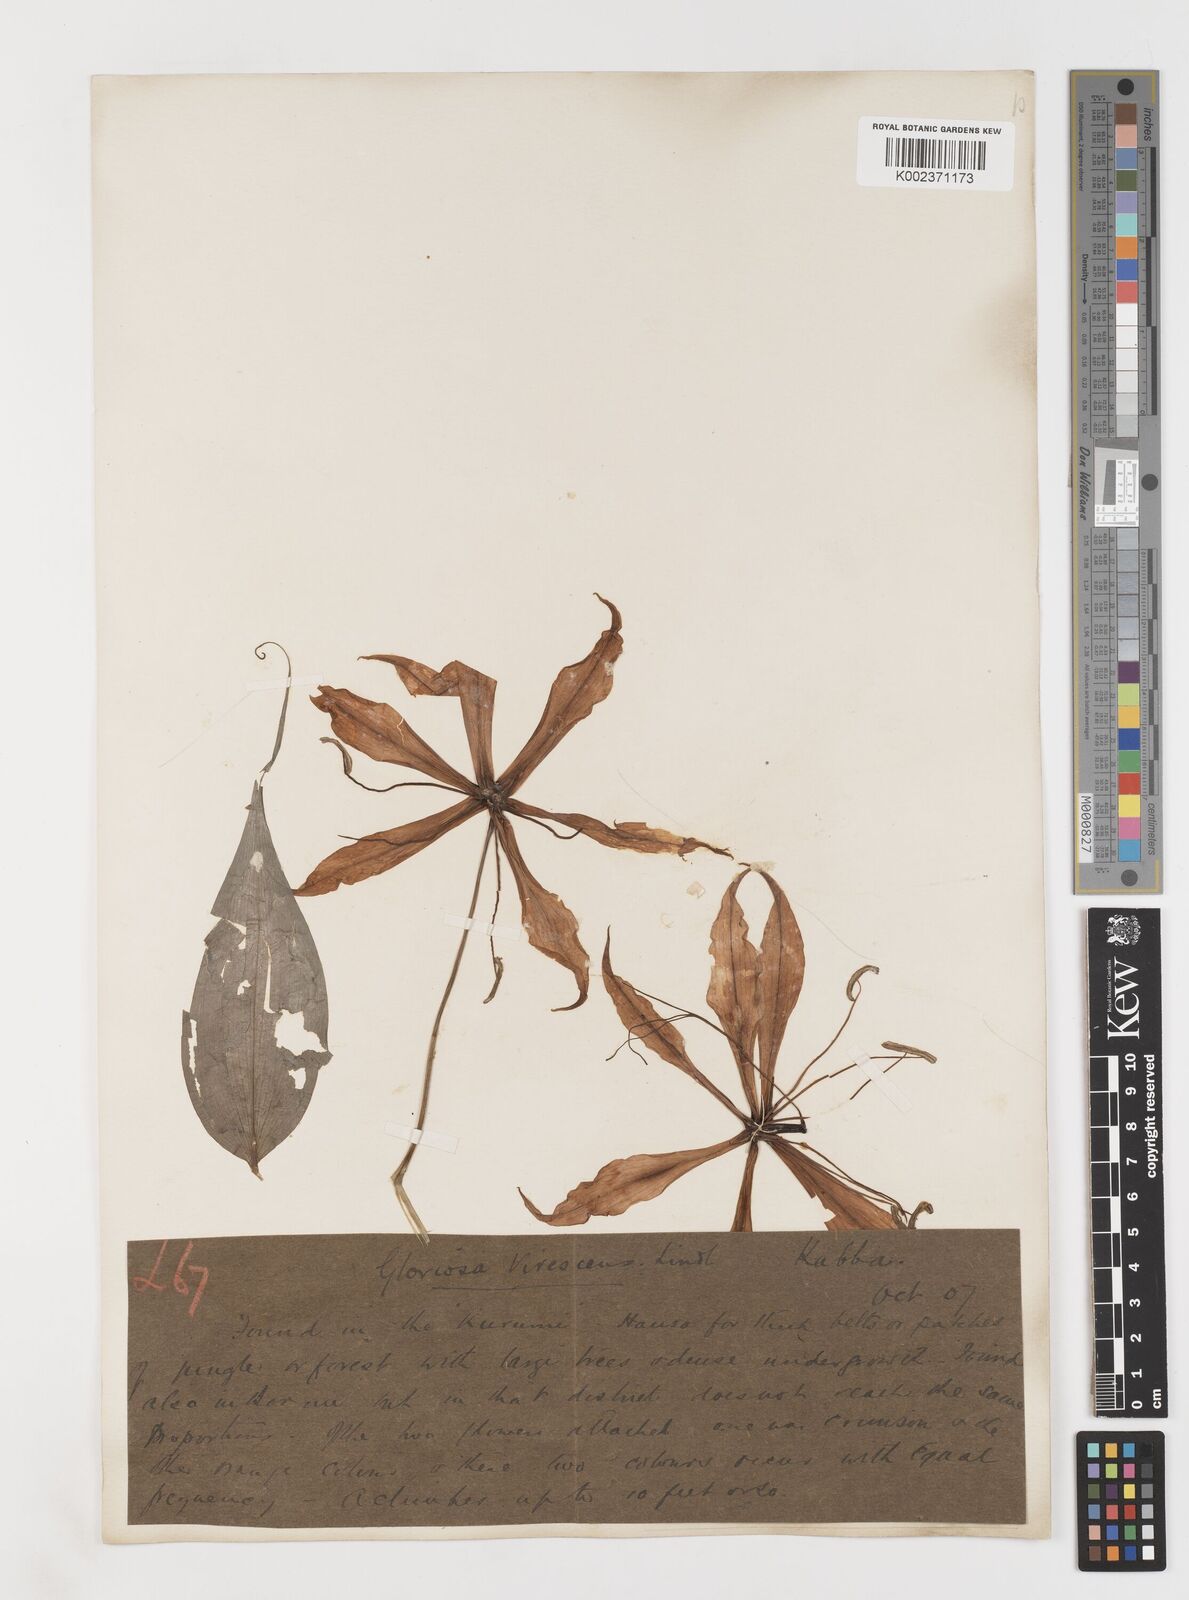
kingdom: Plantae
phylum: Tracheophyta
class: Liliopsida
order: Liliales
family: Colchicaceae
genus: Gloriosa
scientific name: Gloriosa simplex
